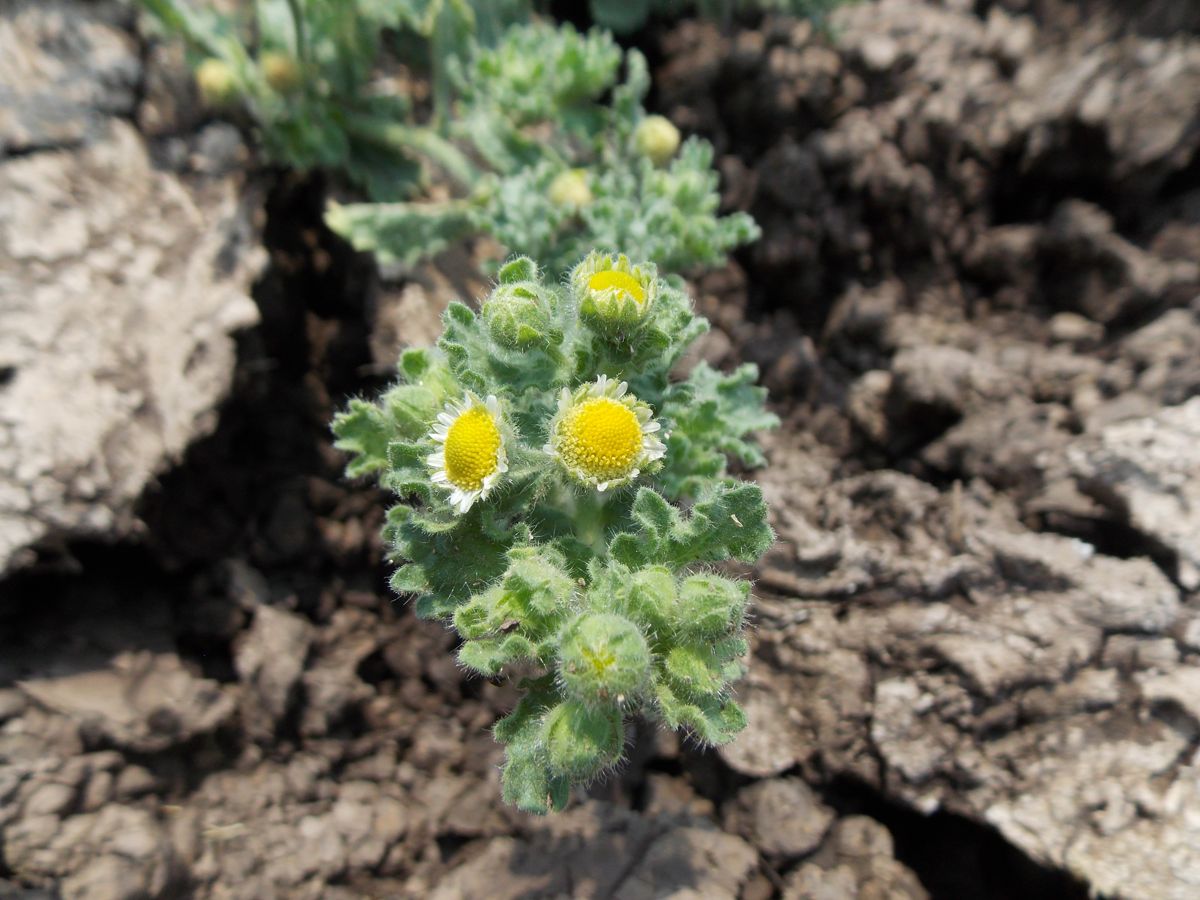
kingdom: Plantae
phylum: Tracheophyta
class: Magnoliopsida
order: Asterales
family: Asteraceae
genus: Egletes
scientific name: Egletes viscosa
